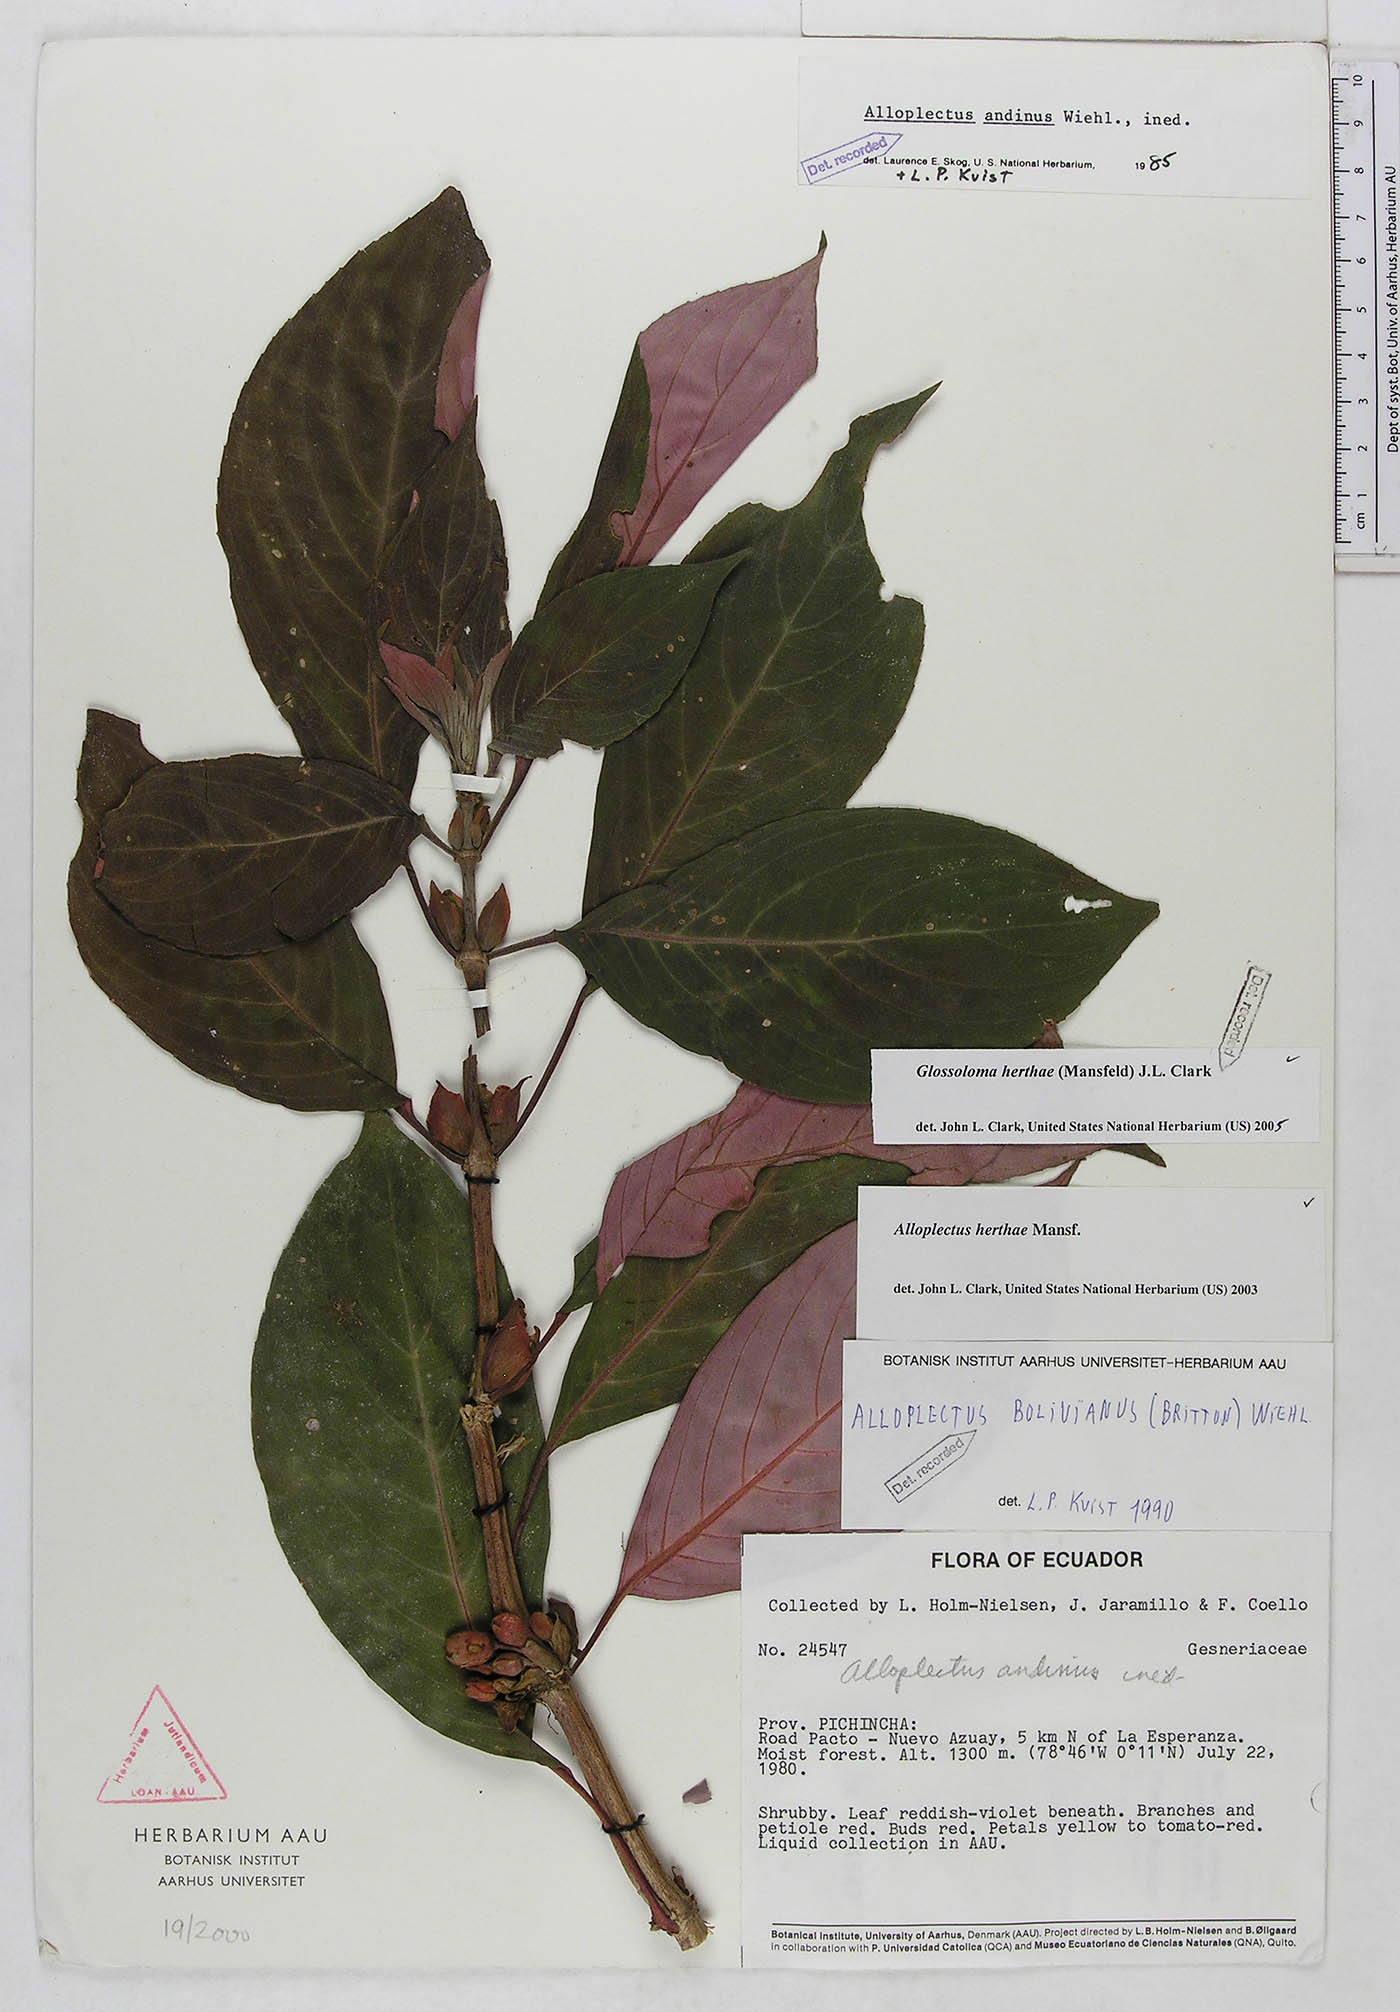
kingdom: Plantae
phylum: Tracheophyta
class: Magnoliopsida
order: Lamiales
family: Gesneriaceae
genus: Glossoloma
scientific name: Glossoloma herthae
